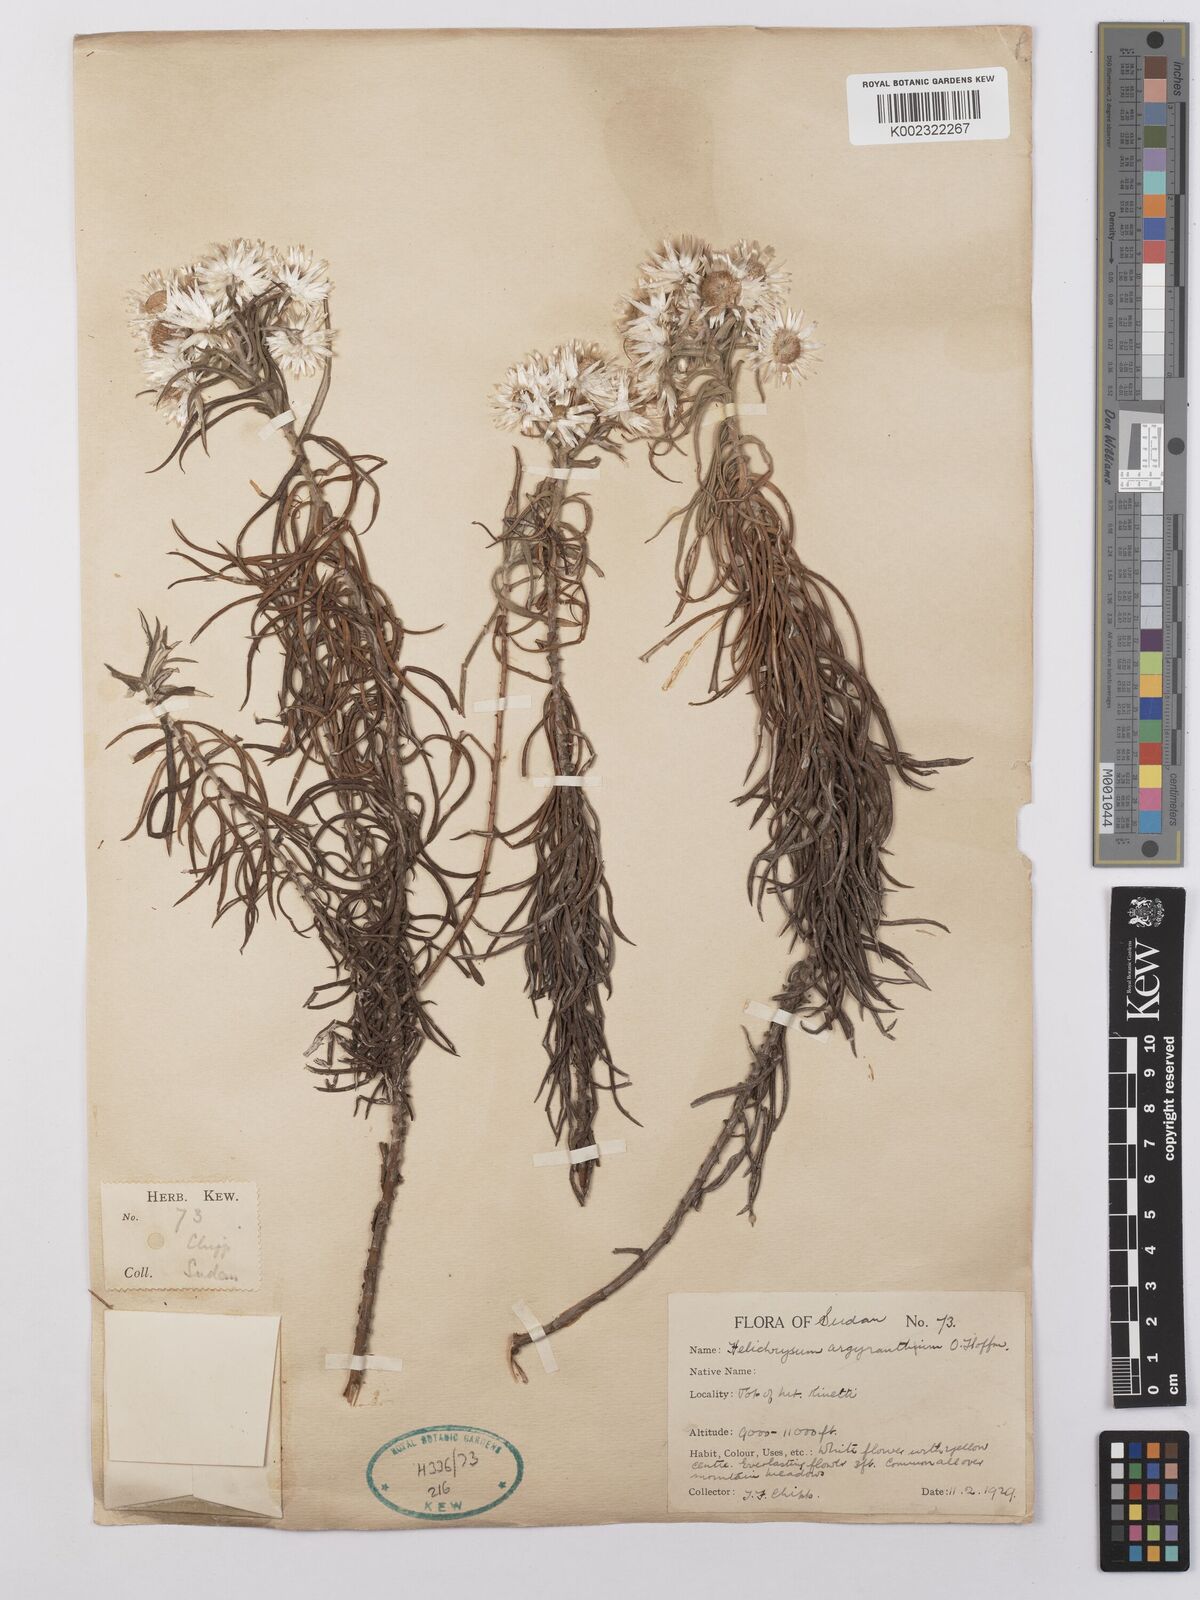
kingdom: Plantae
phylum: Tracheophyta
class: Magnoliopsida
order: Asterales
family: Asteraceae
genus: Helichrysum
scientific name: Helichrysum argyranthum
